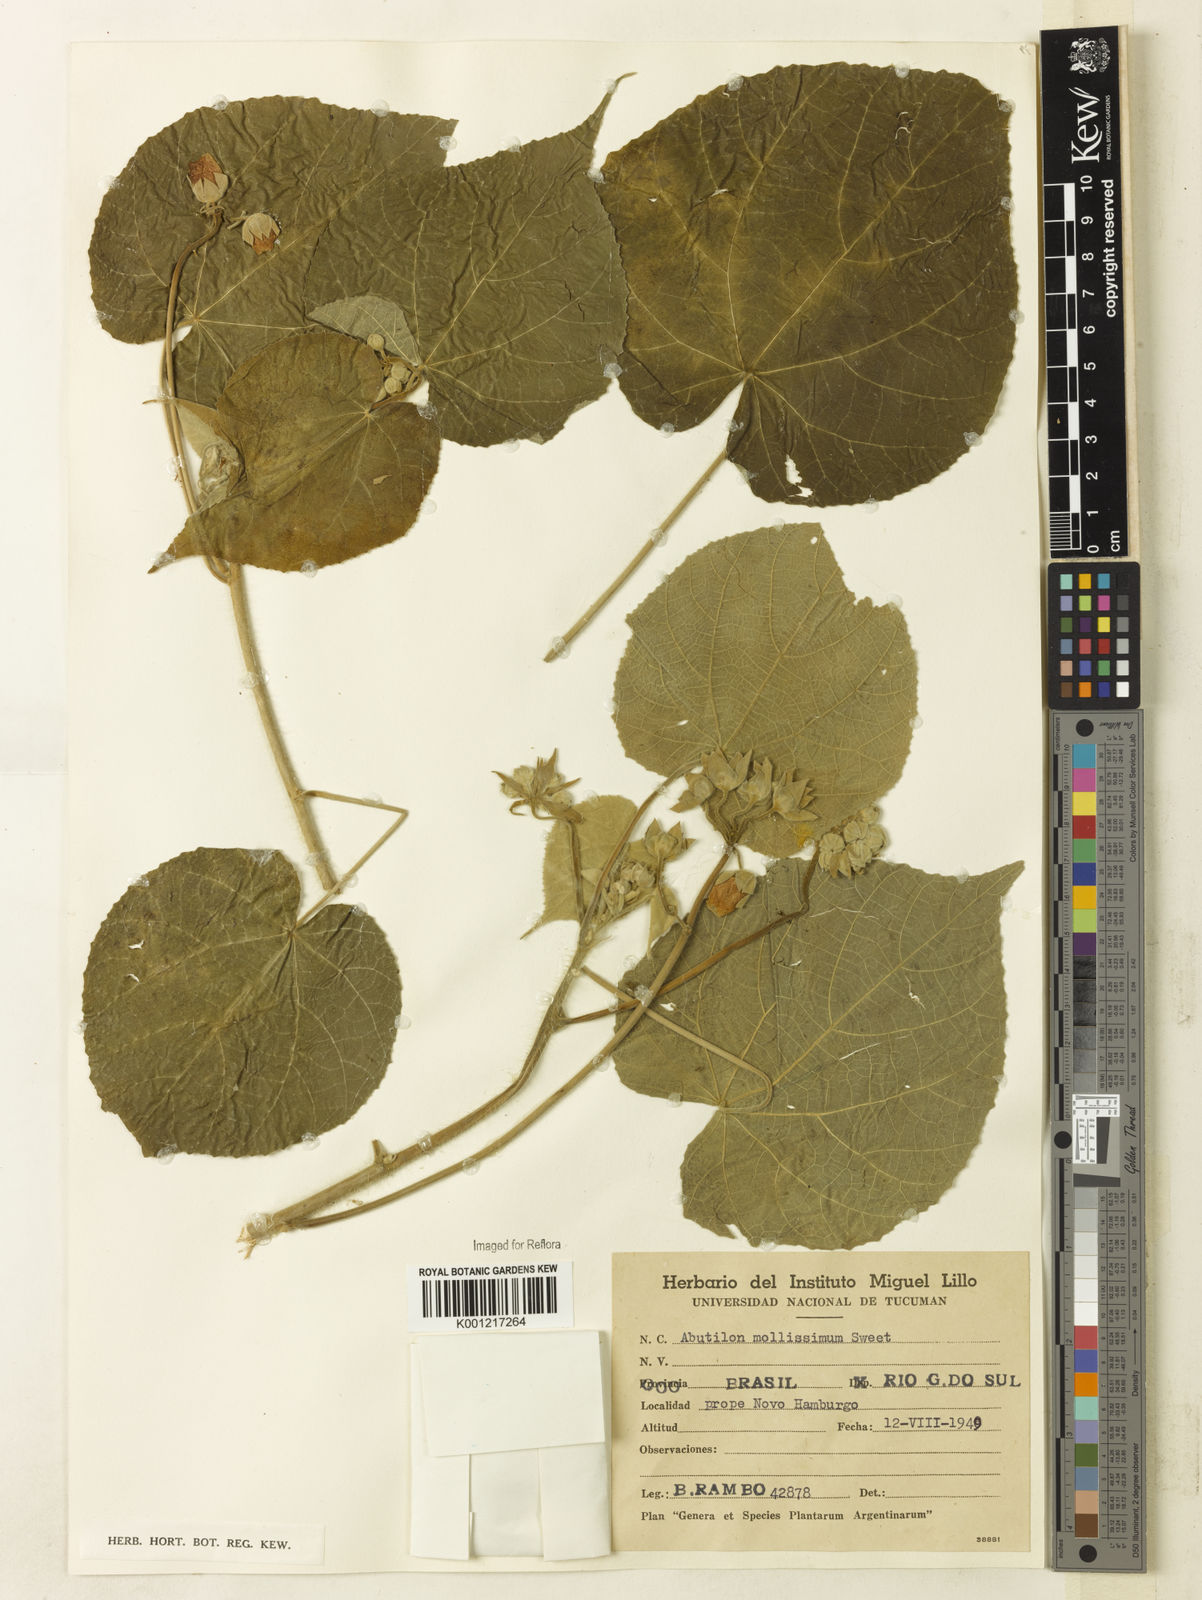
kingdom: Plantae
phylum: Tracheophyta
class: Magnoliopsida
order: Malvales
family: Malvaceae
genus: Abutilon
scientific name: Abutilon umbelliflorum
